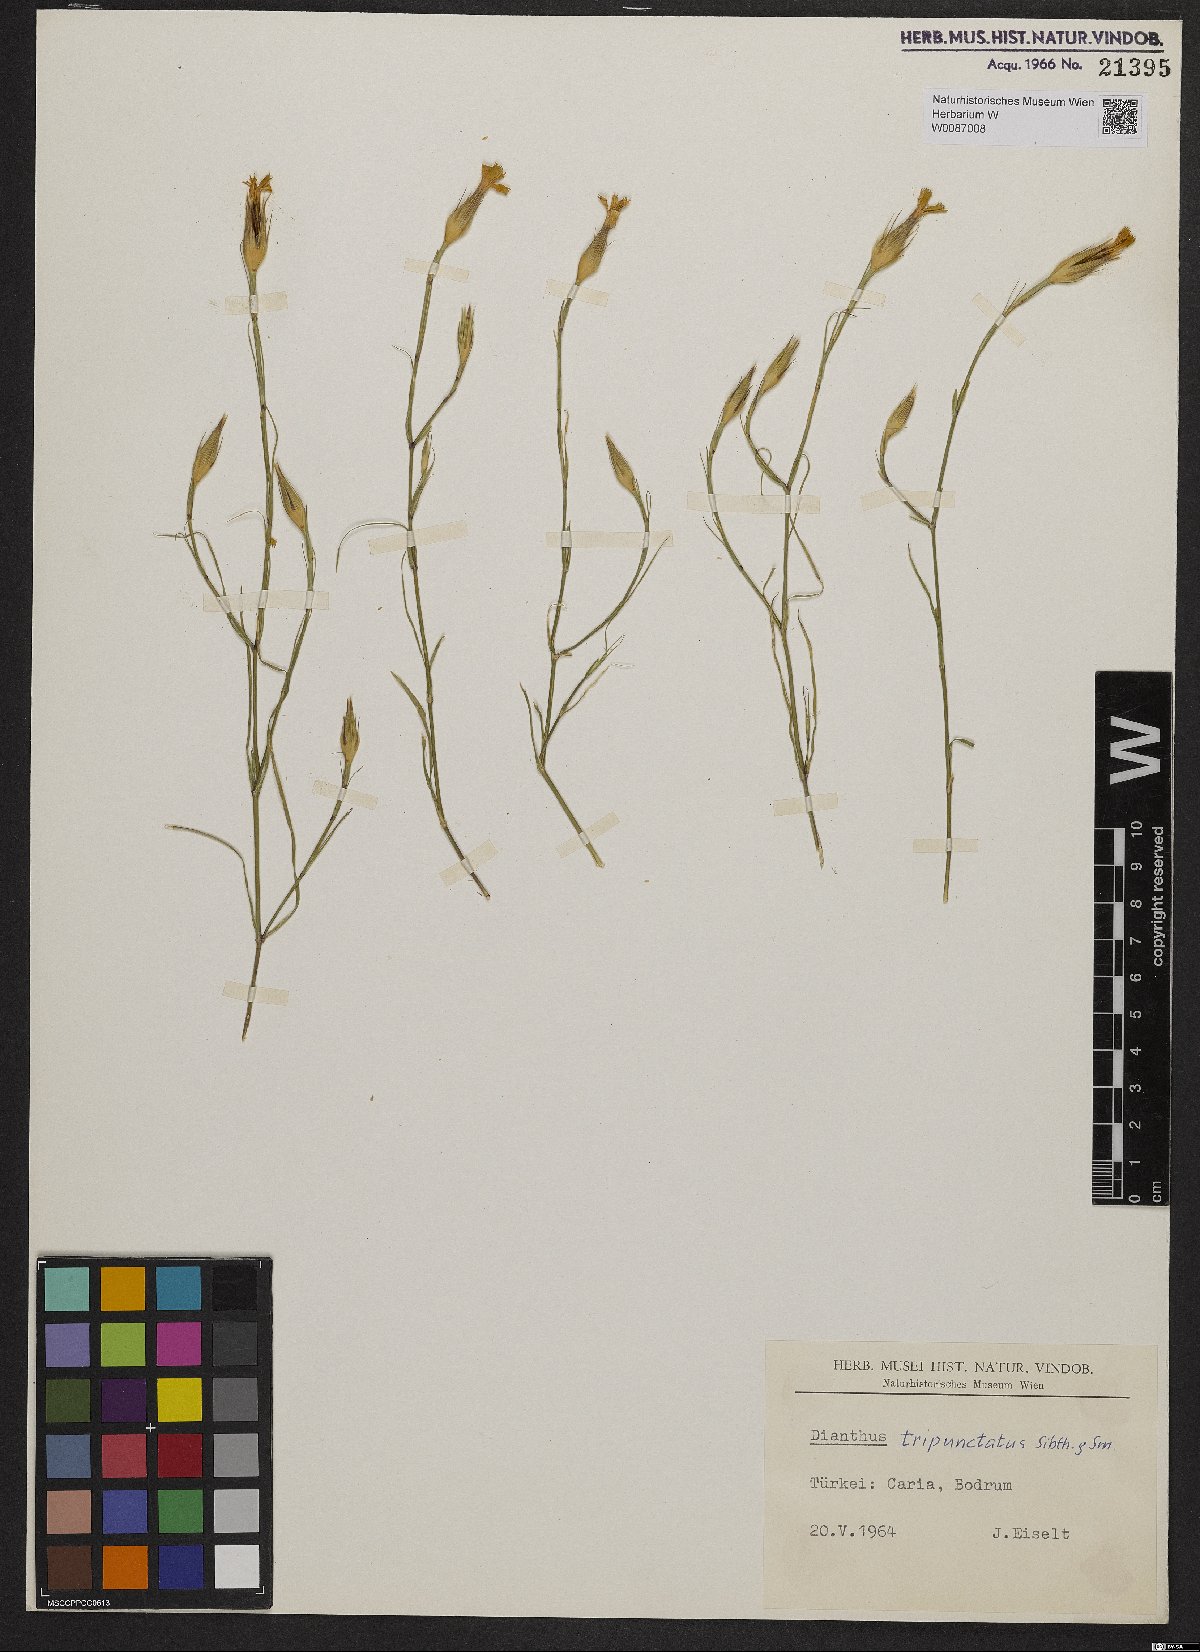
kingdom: Plantae
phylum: Tracheophyta
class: Magnoliopsida
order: Caryophyllales
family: Caryophyllaceae
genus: Dianthus
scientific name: Dianthus tripunctatus
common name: Three-spotted pink
